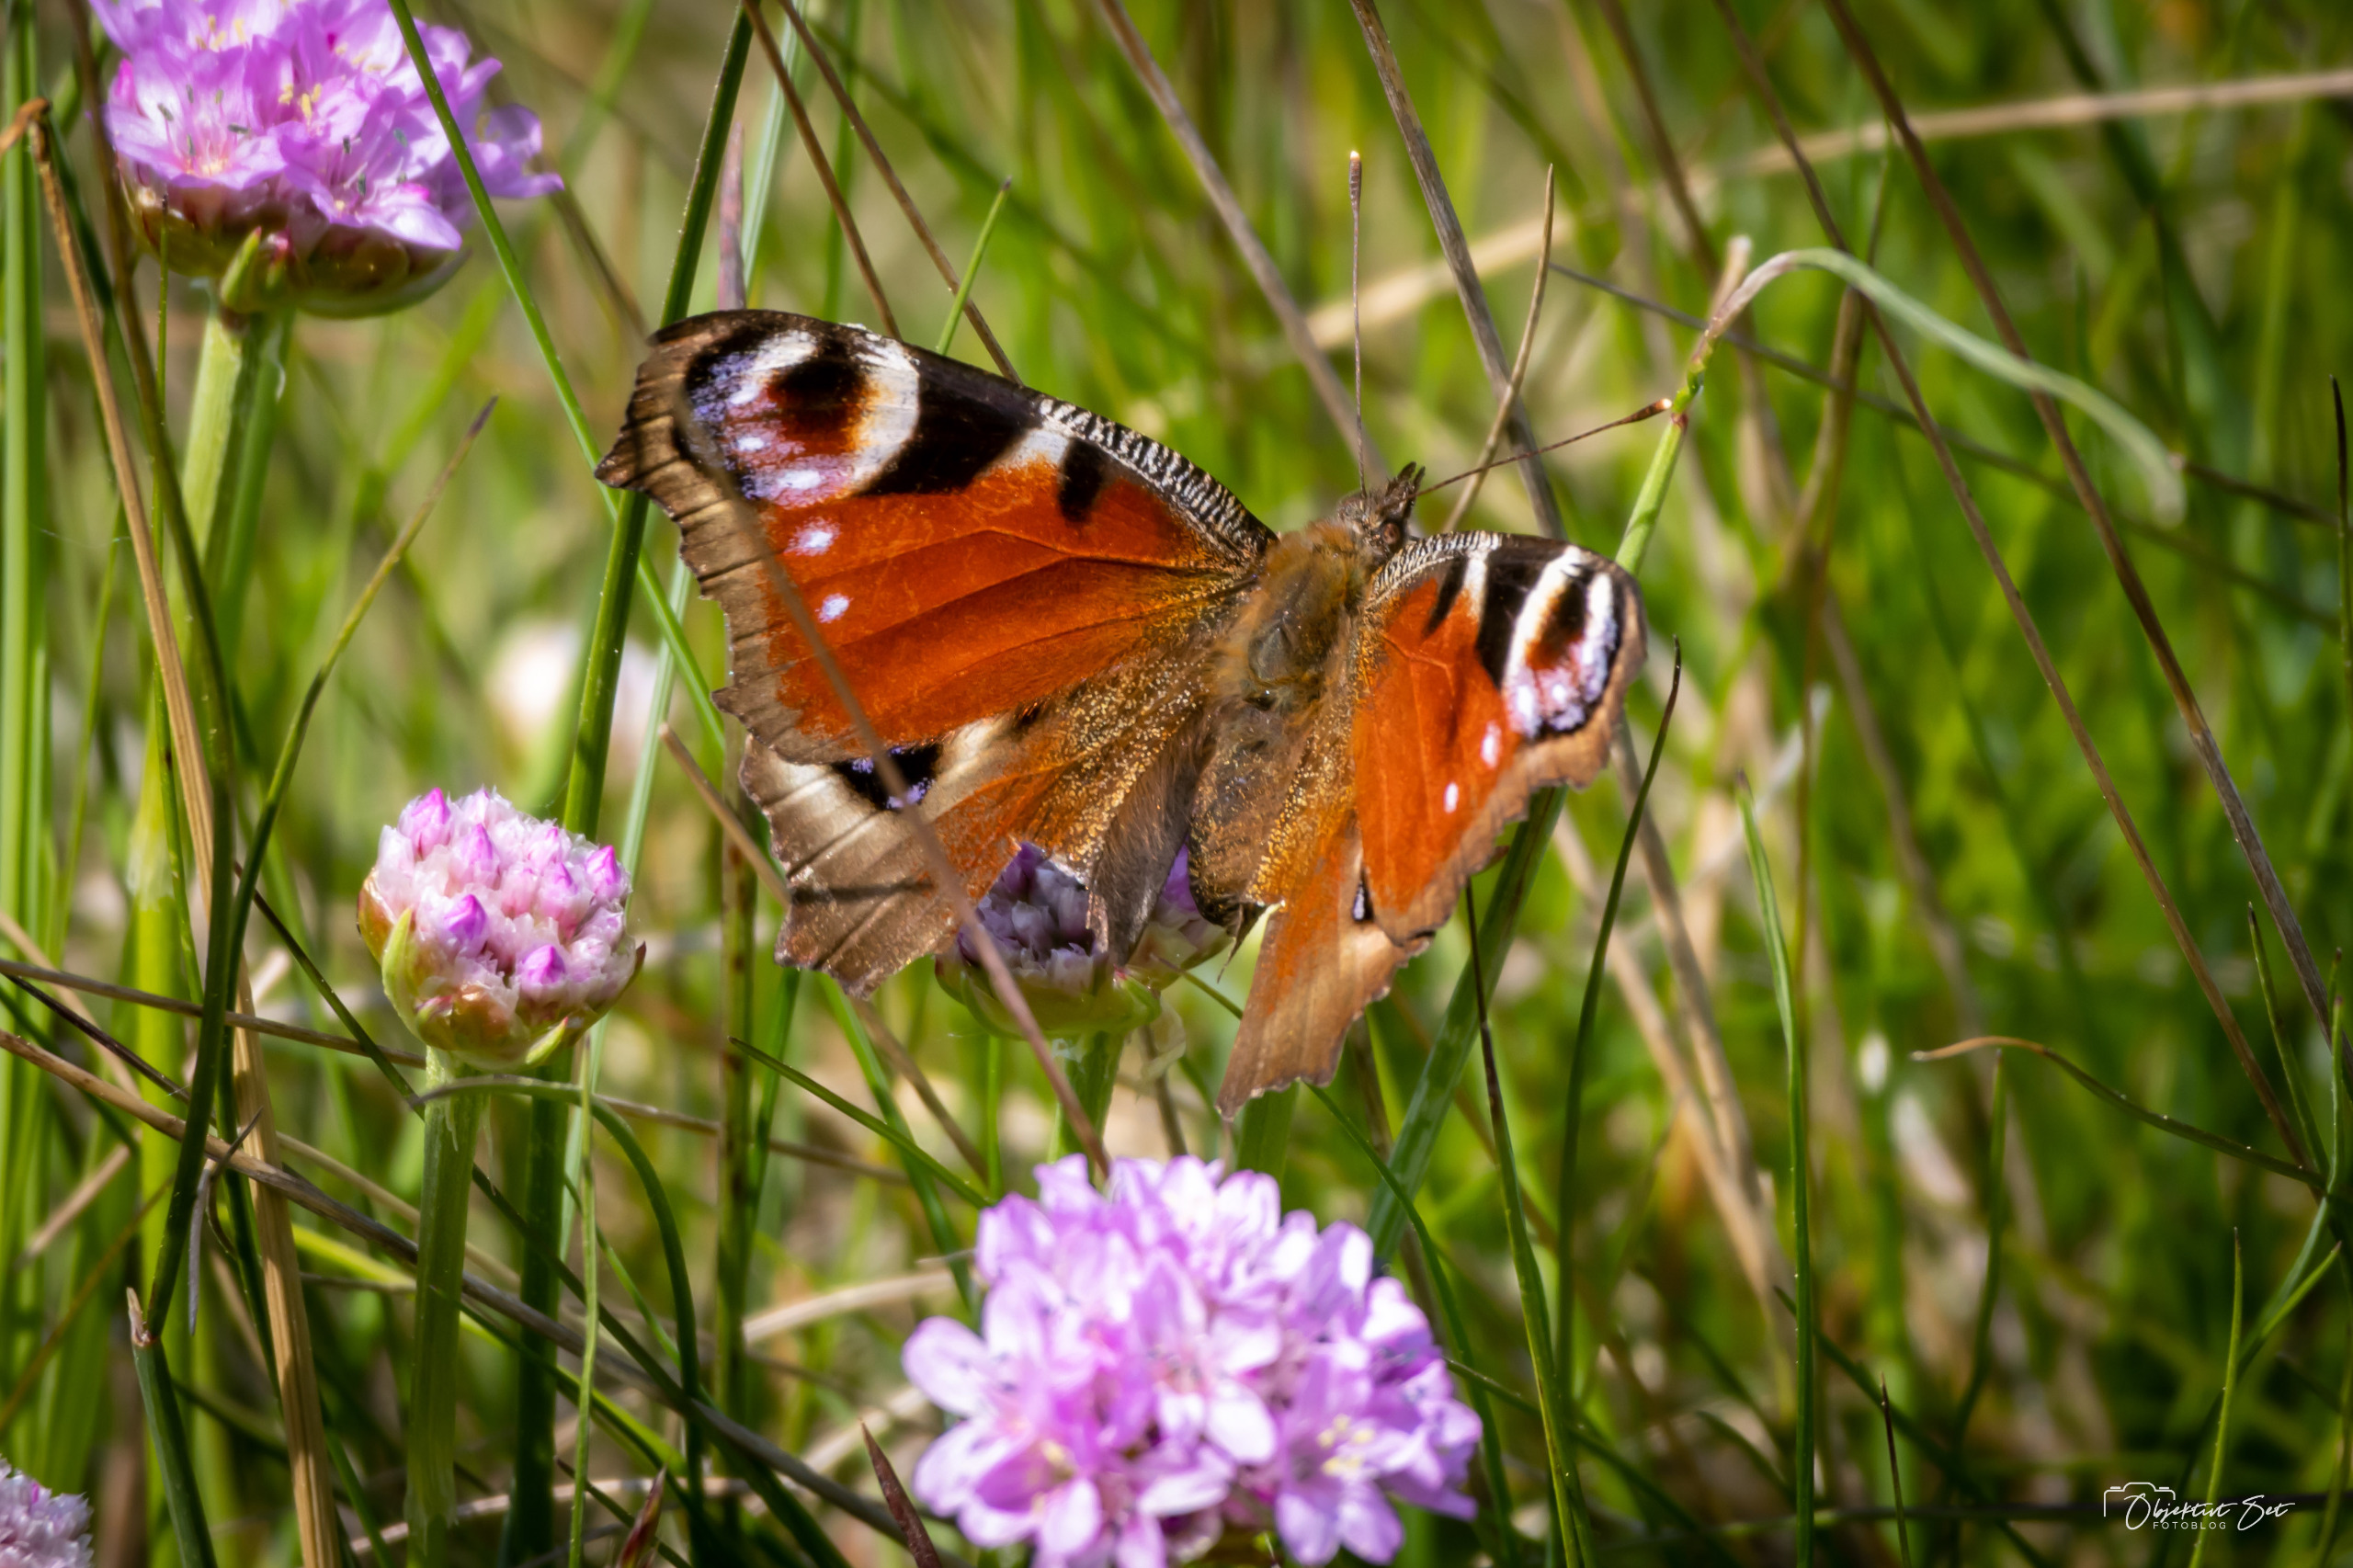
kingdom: Animalia
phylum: Arthropoda
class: Insecta
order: Lepidoptera
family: Nymphalidae
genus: Aglais
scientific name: Aglais io
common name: Dagpåfugleøje
